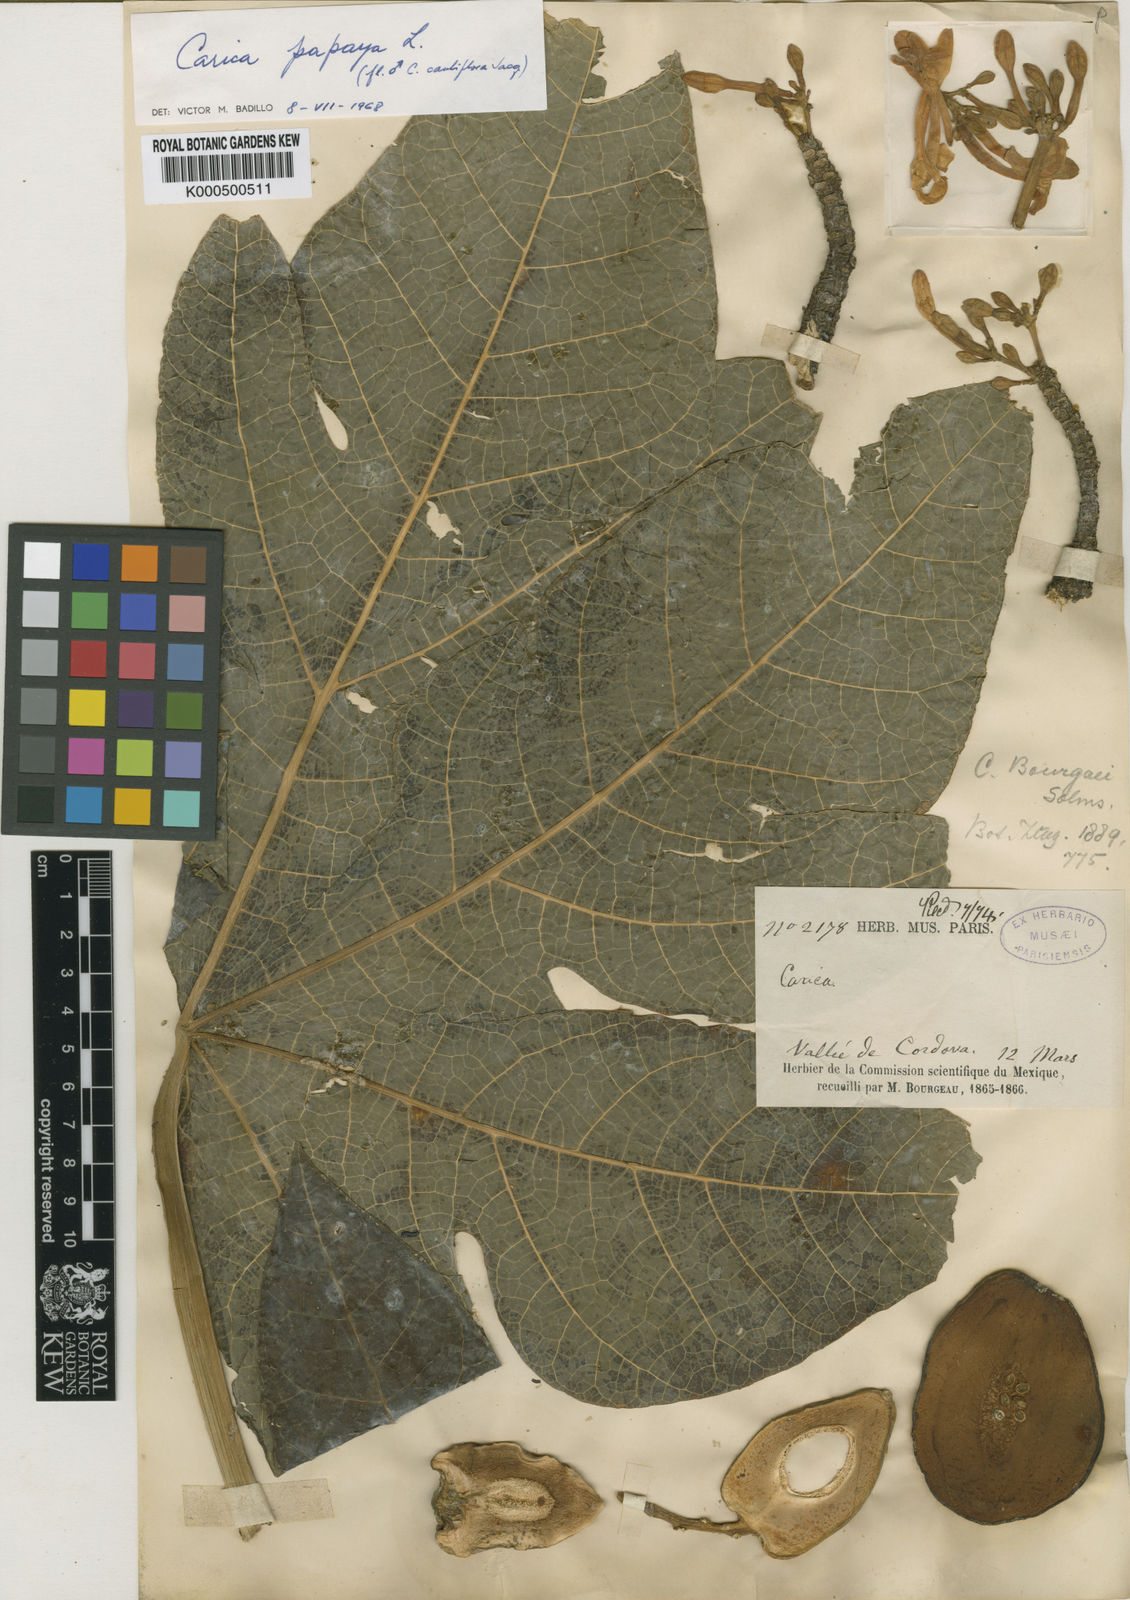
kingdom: Plantae
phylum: Tracheophyta
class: Magnoliopsida
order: Brassicales
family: Caricaceae
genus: Carica
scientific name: Carica papaya
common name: Papaya
